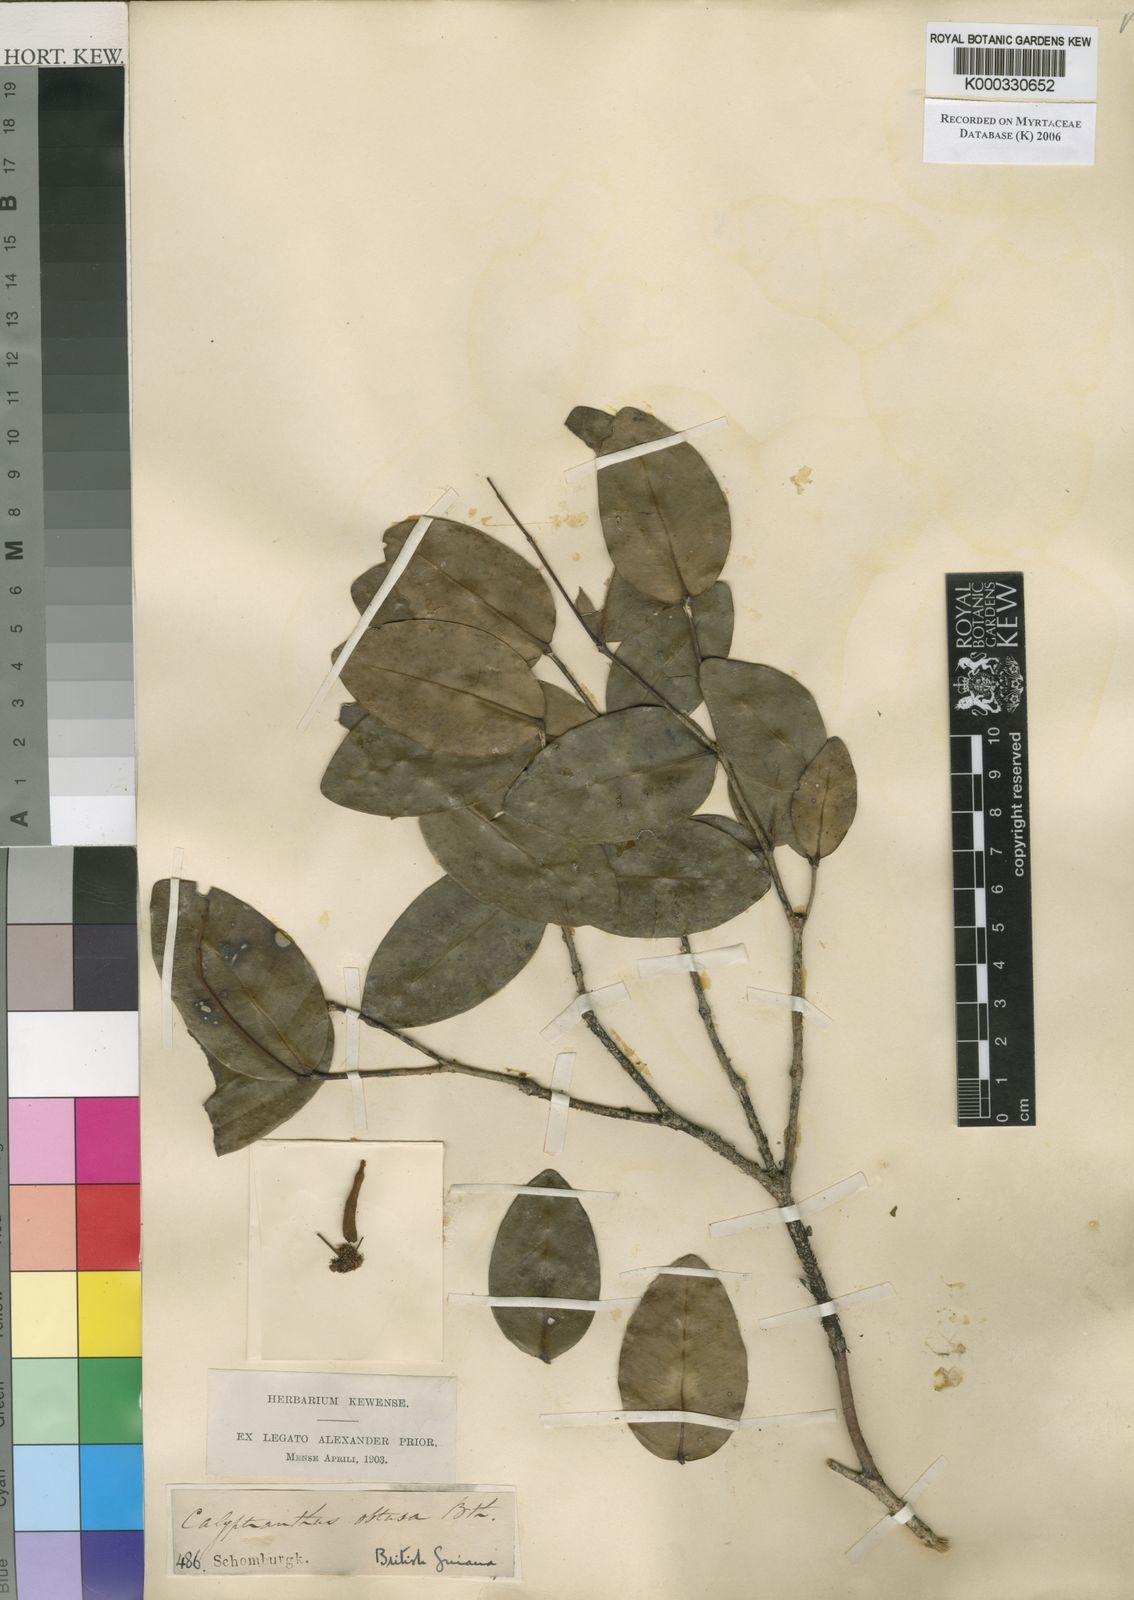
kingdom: Plantae
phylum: Tracheophyta
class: Magnoliopsida
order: Myrtales
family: Myrtaceae
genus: Myrcia
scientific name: Myrcia neomontana
